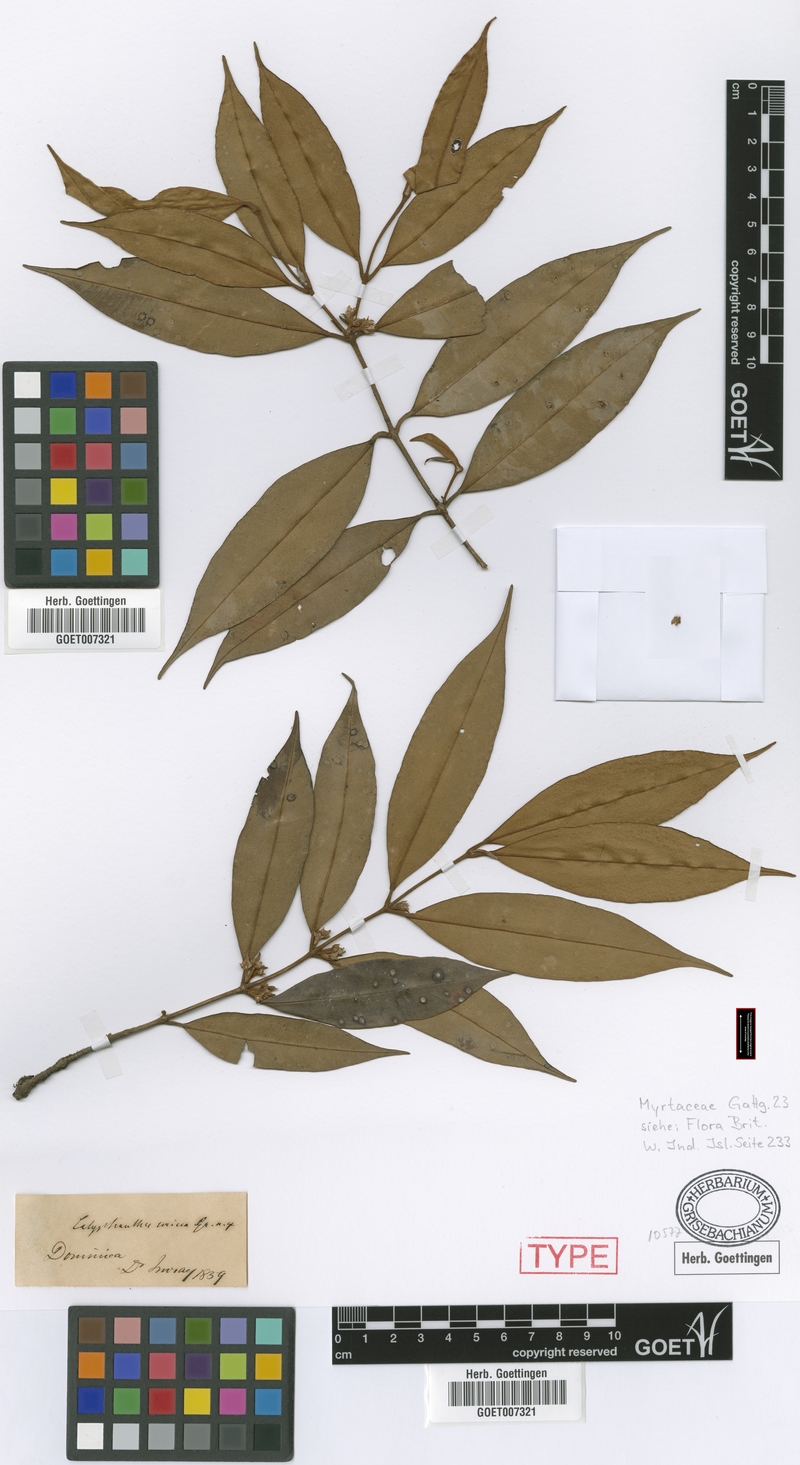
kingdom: Plantae
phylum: Tracheophyta
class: Magnoliopsida
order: Myrtales
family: Myrtaceae
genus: Myrcia
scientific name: Myrcia fasciculata
